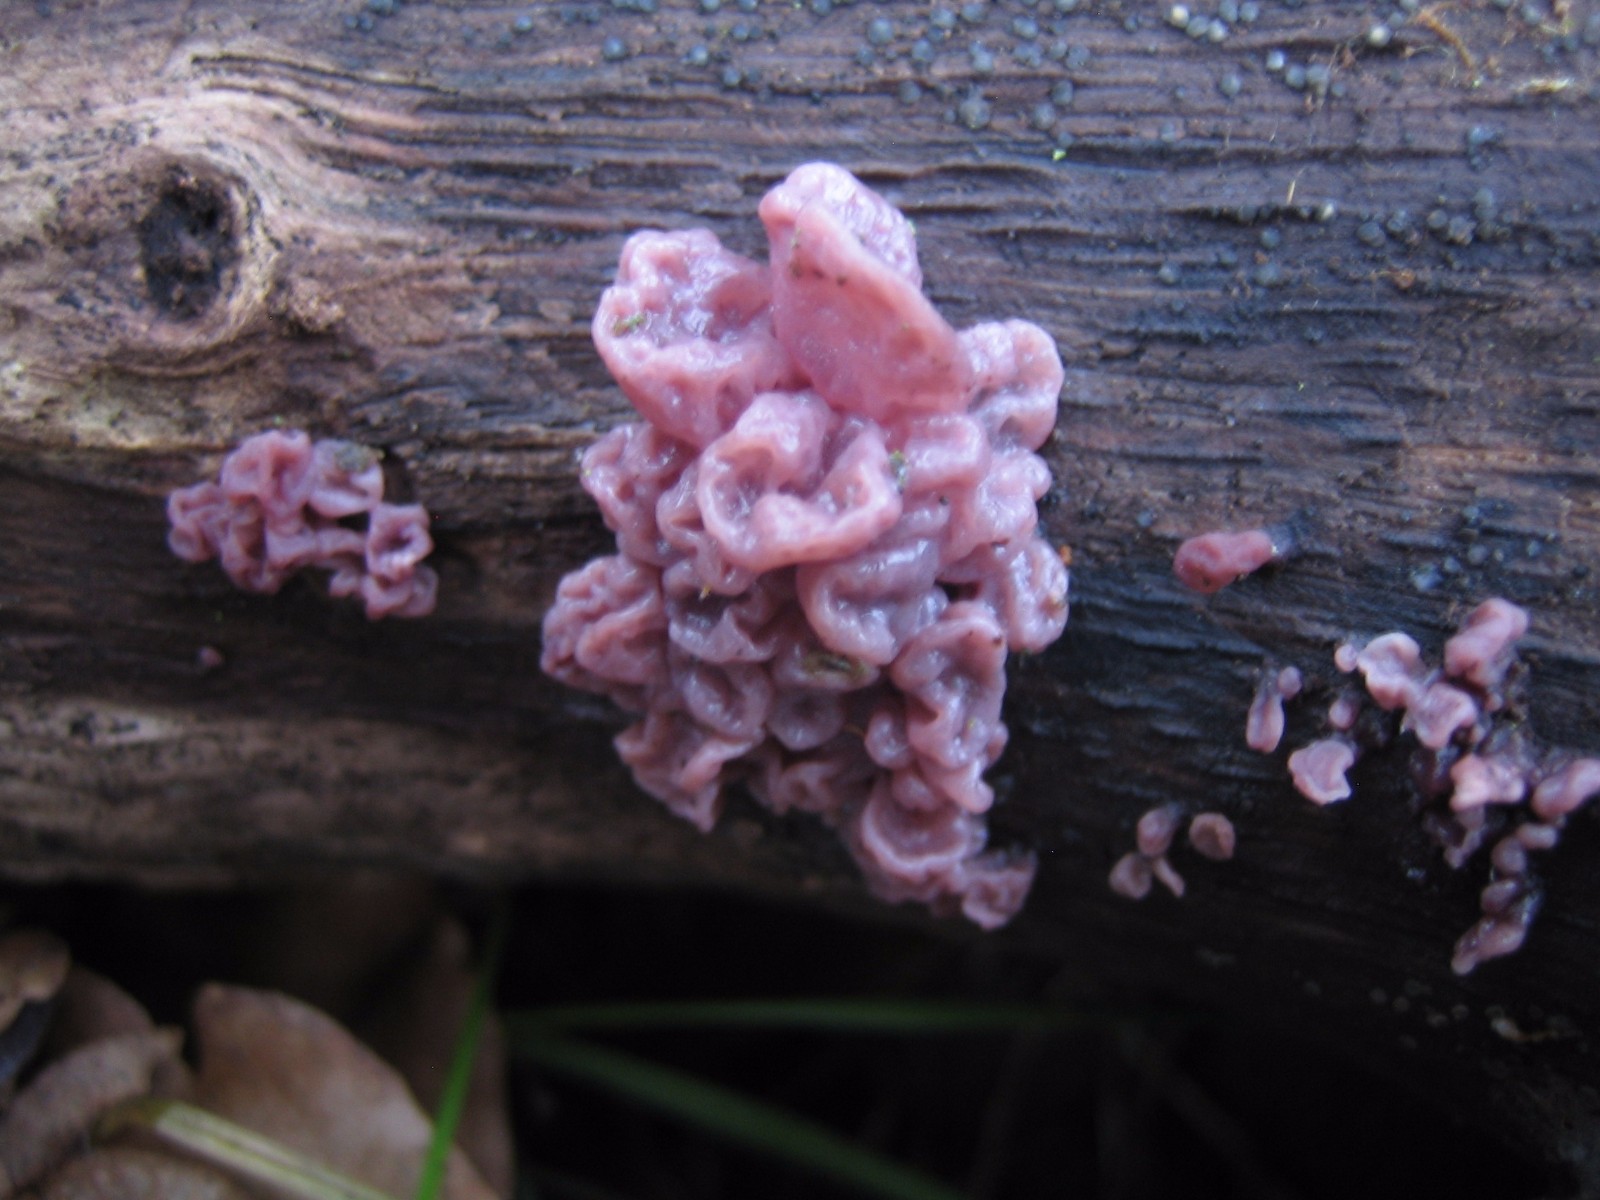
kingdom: Fungi
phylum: Ascomycota
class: Leotiomycetes
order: Helotiales
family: Gelatinodiscaceae
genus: Ascocoryne
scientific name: Ascocoryne sarcoides
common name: rødlilla sejskive
